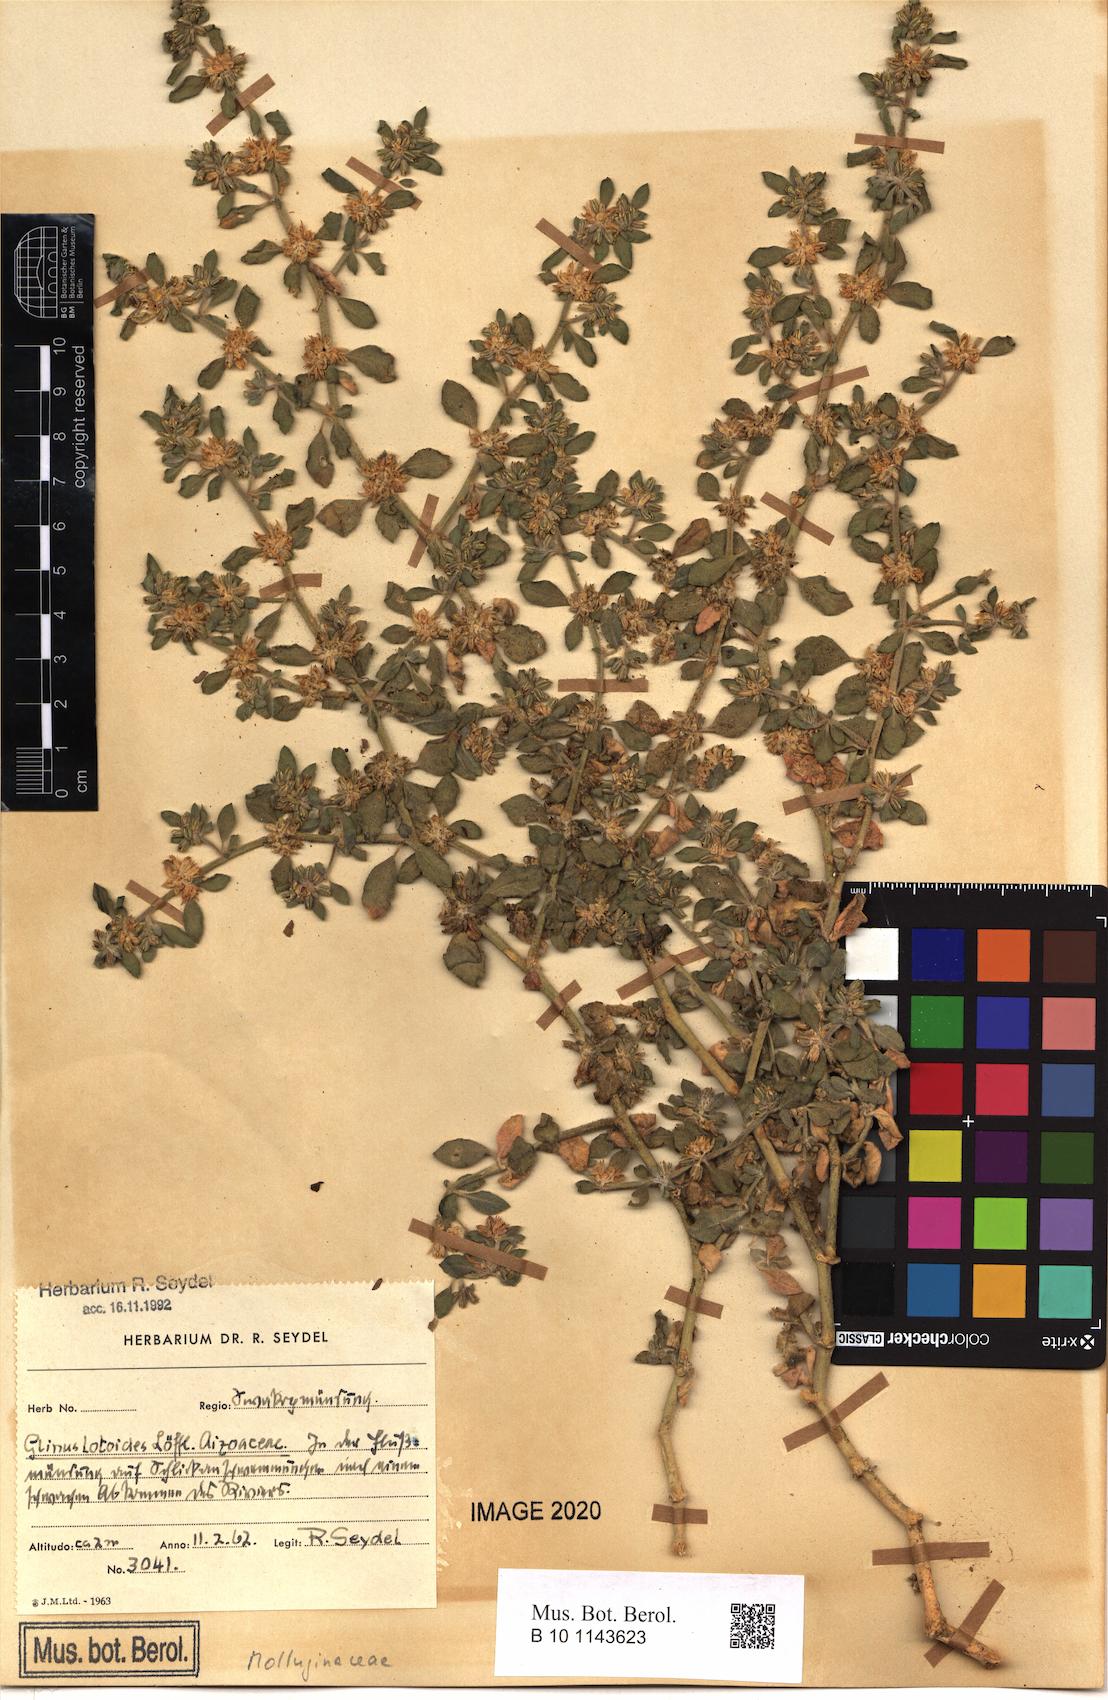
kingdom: Plantae
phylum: Tracheophyta
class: Magnoliopsida
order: Caryophyllales
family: Molluginaceae
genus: Glinus
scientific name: Glinus hirtus
